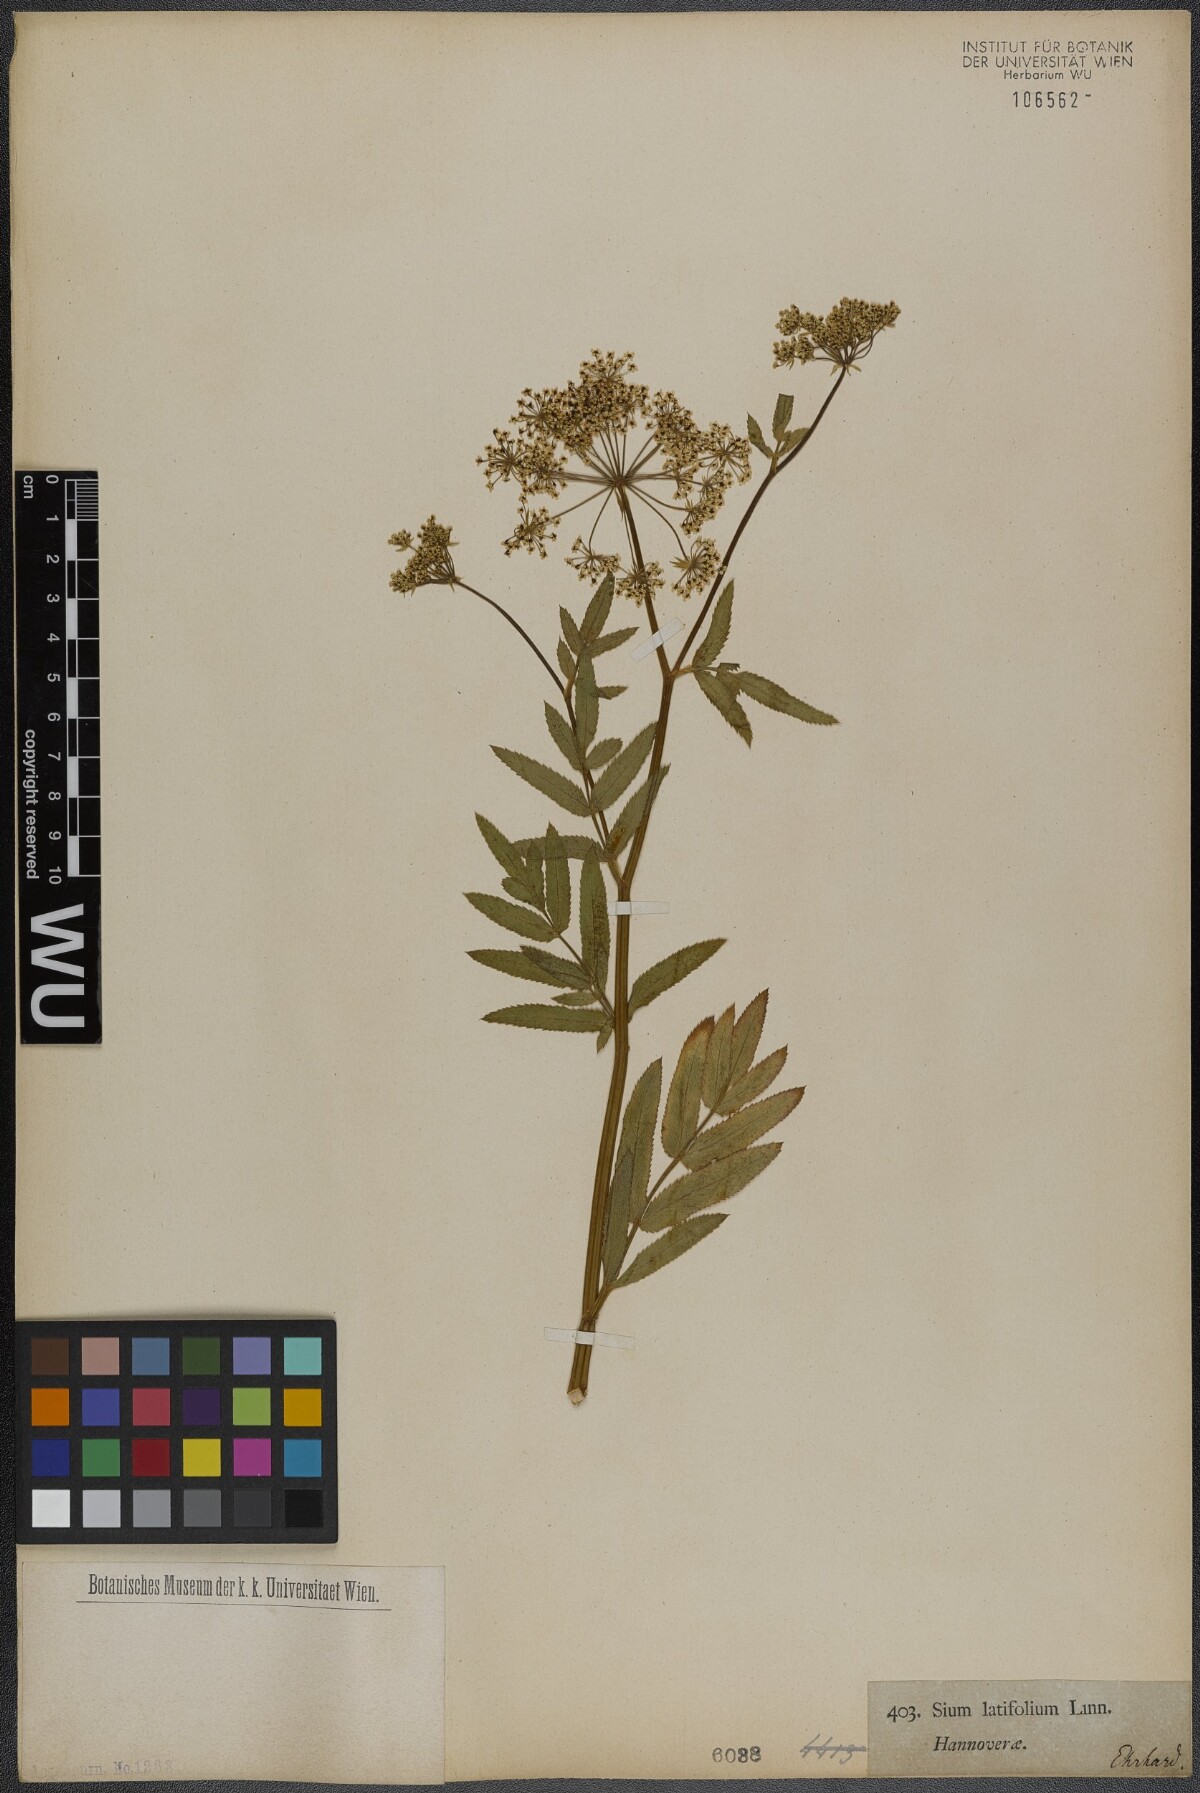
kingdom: Plantae
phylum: Tracheophyta
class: Magnoliopsida
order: Apiales
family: Apiaceae
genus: Sium
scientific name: Sium latifolium
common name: Greater water-parsnip
